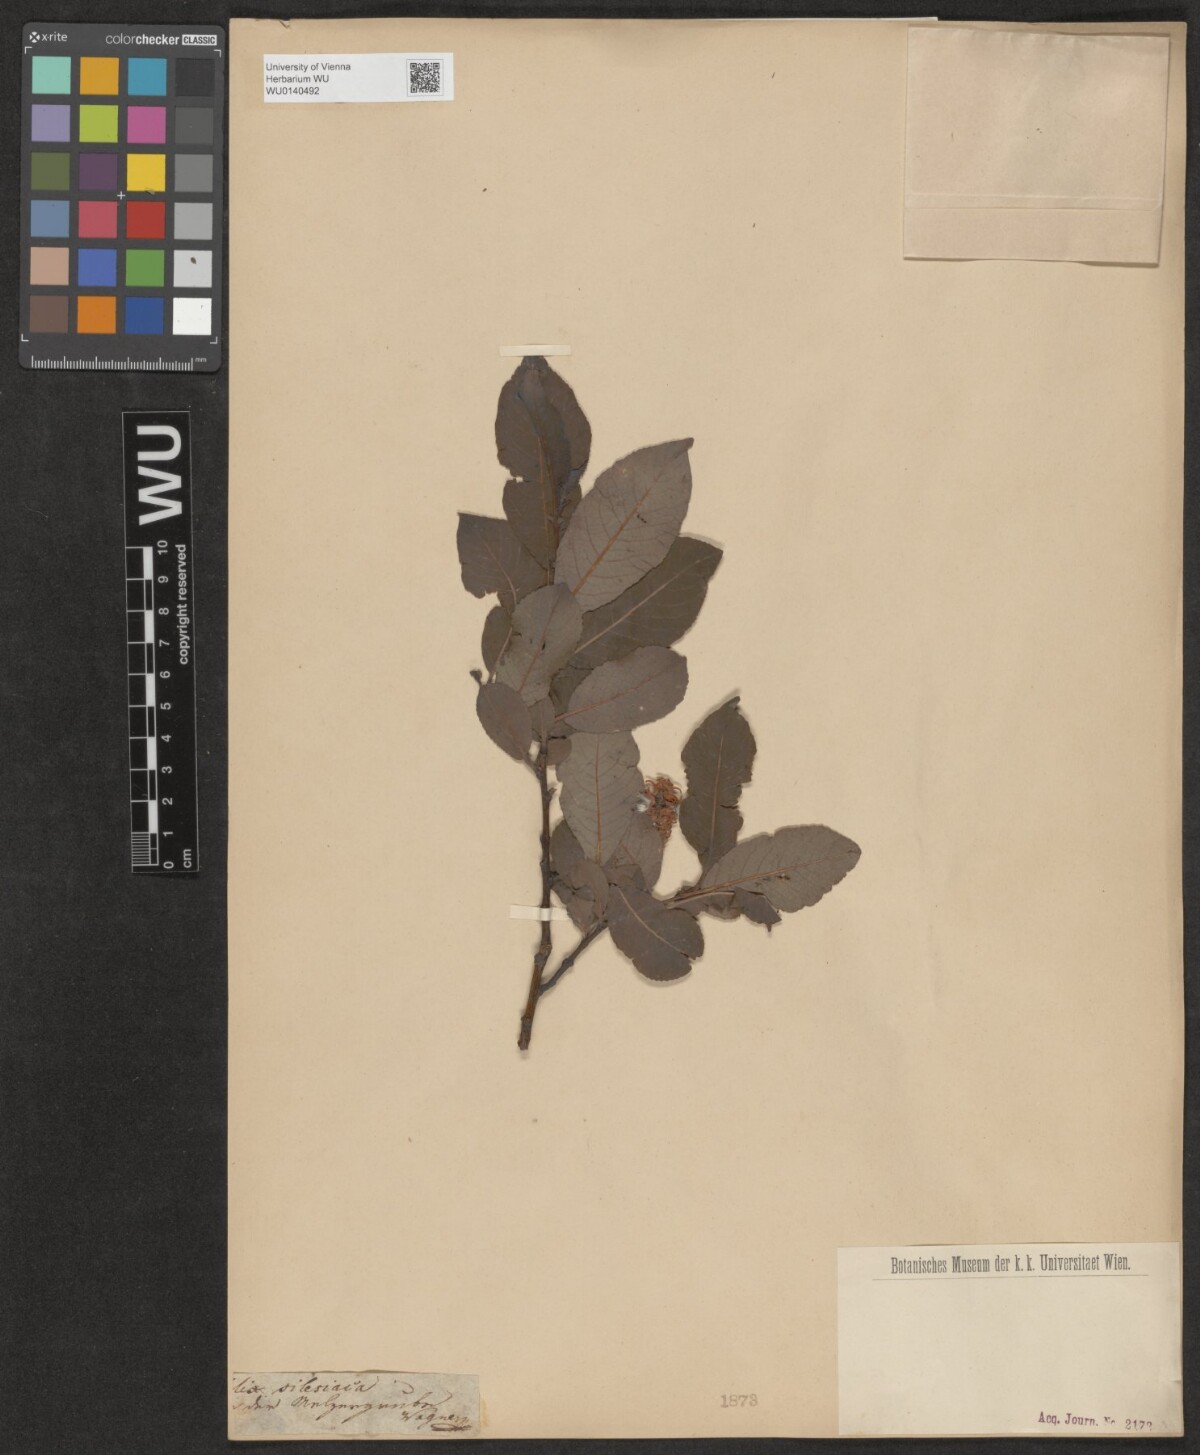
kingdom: Plantae
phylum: Tracheophyta
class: Magnoliopsida
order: Malpighiales
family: Salicaceae
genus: Salix
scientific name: Salix silesiaca
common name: Silesian willow
